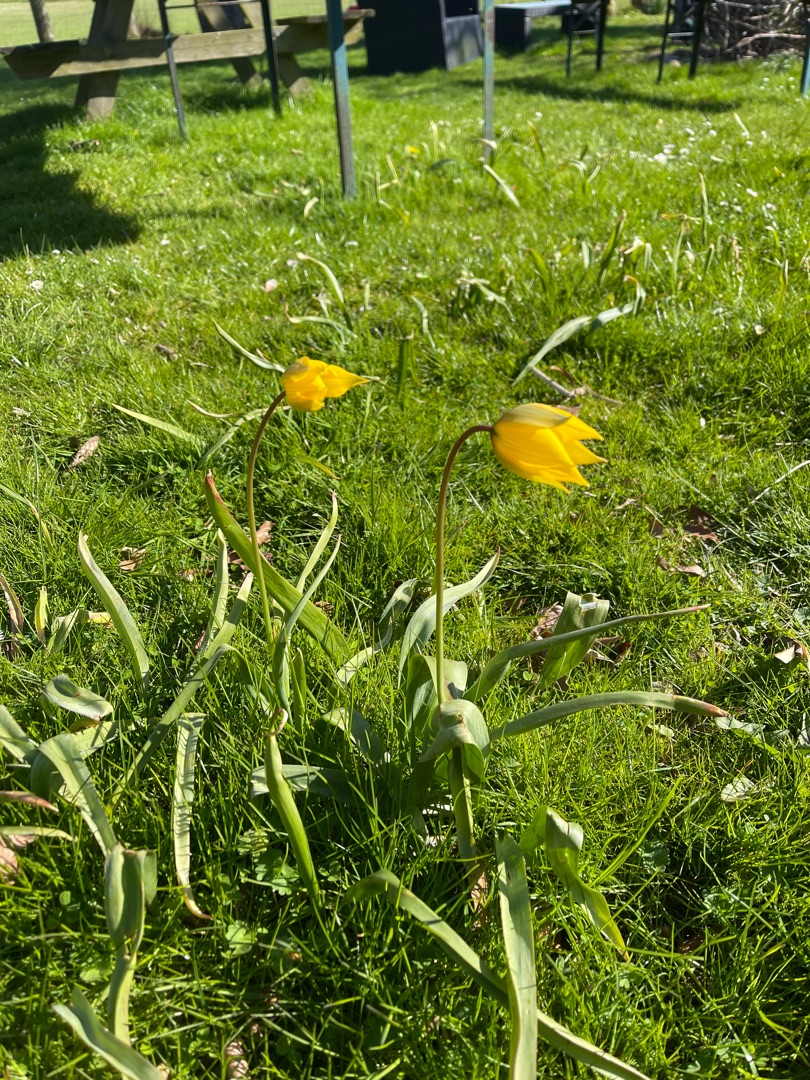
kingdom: Plantae
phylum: Tracheophyta
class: Liliopsida
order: Liliales
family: Liliaceae
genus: Tulipa
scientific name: Tulipa sylvestris
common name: Vild tulipan
